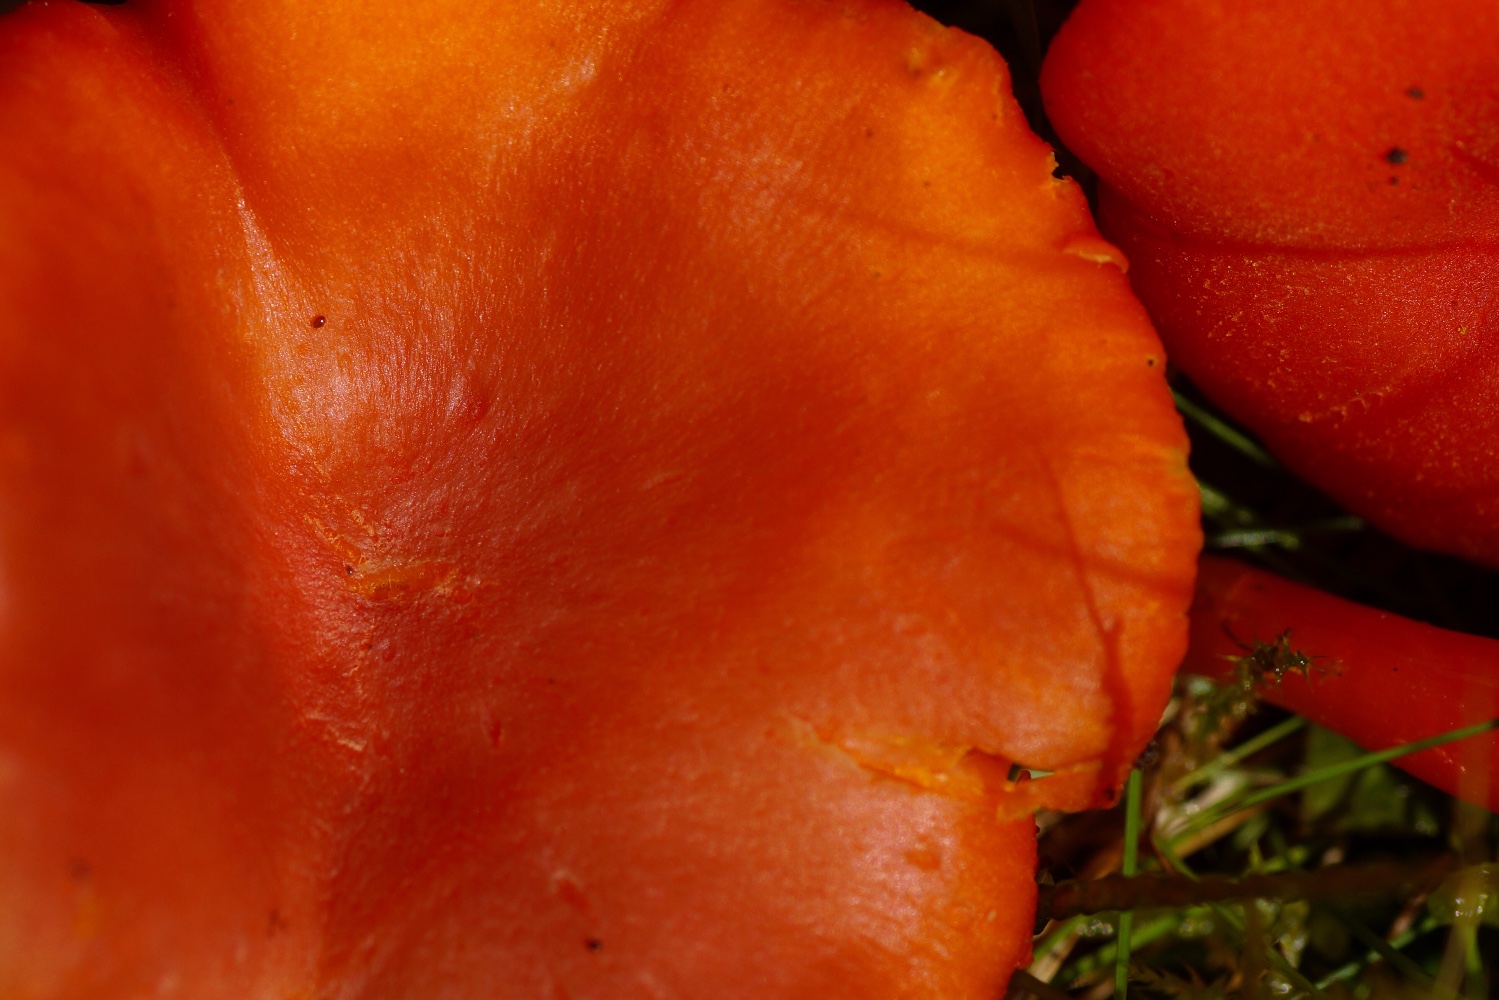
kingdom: Fungi
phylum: Basidiomycota
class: Agaricomycetes
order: Agaricales
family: Hygrophoraceae
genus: Hygrocybe
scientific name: Hygrocybe miniata
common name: mønje-vokshat
